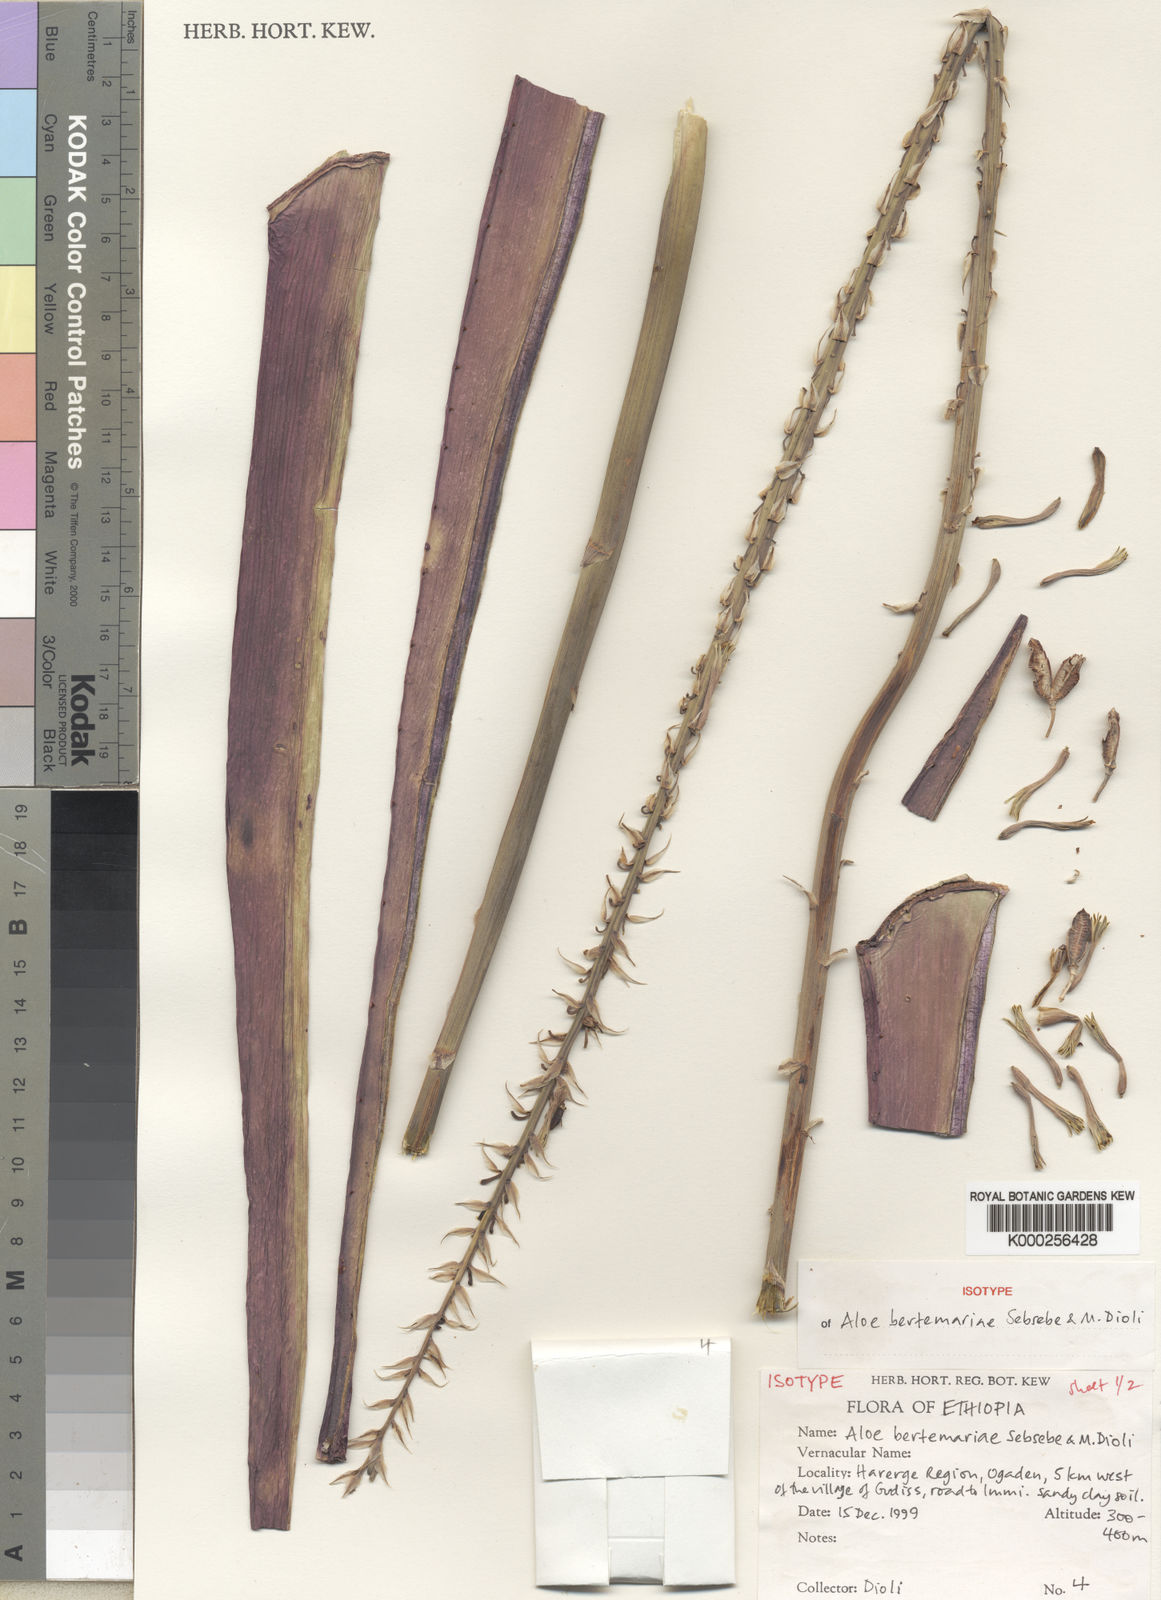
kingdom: Plantae
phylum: Tracheophyta
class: Liliopsida
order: Asparagales
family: Asphodelaceae
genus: Aloe
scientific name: Aloe bertemariae
